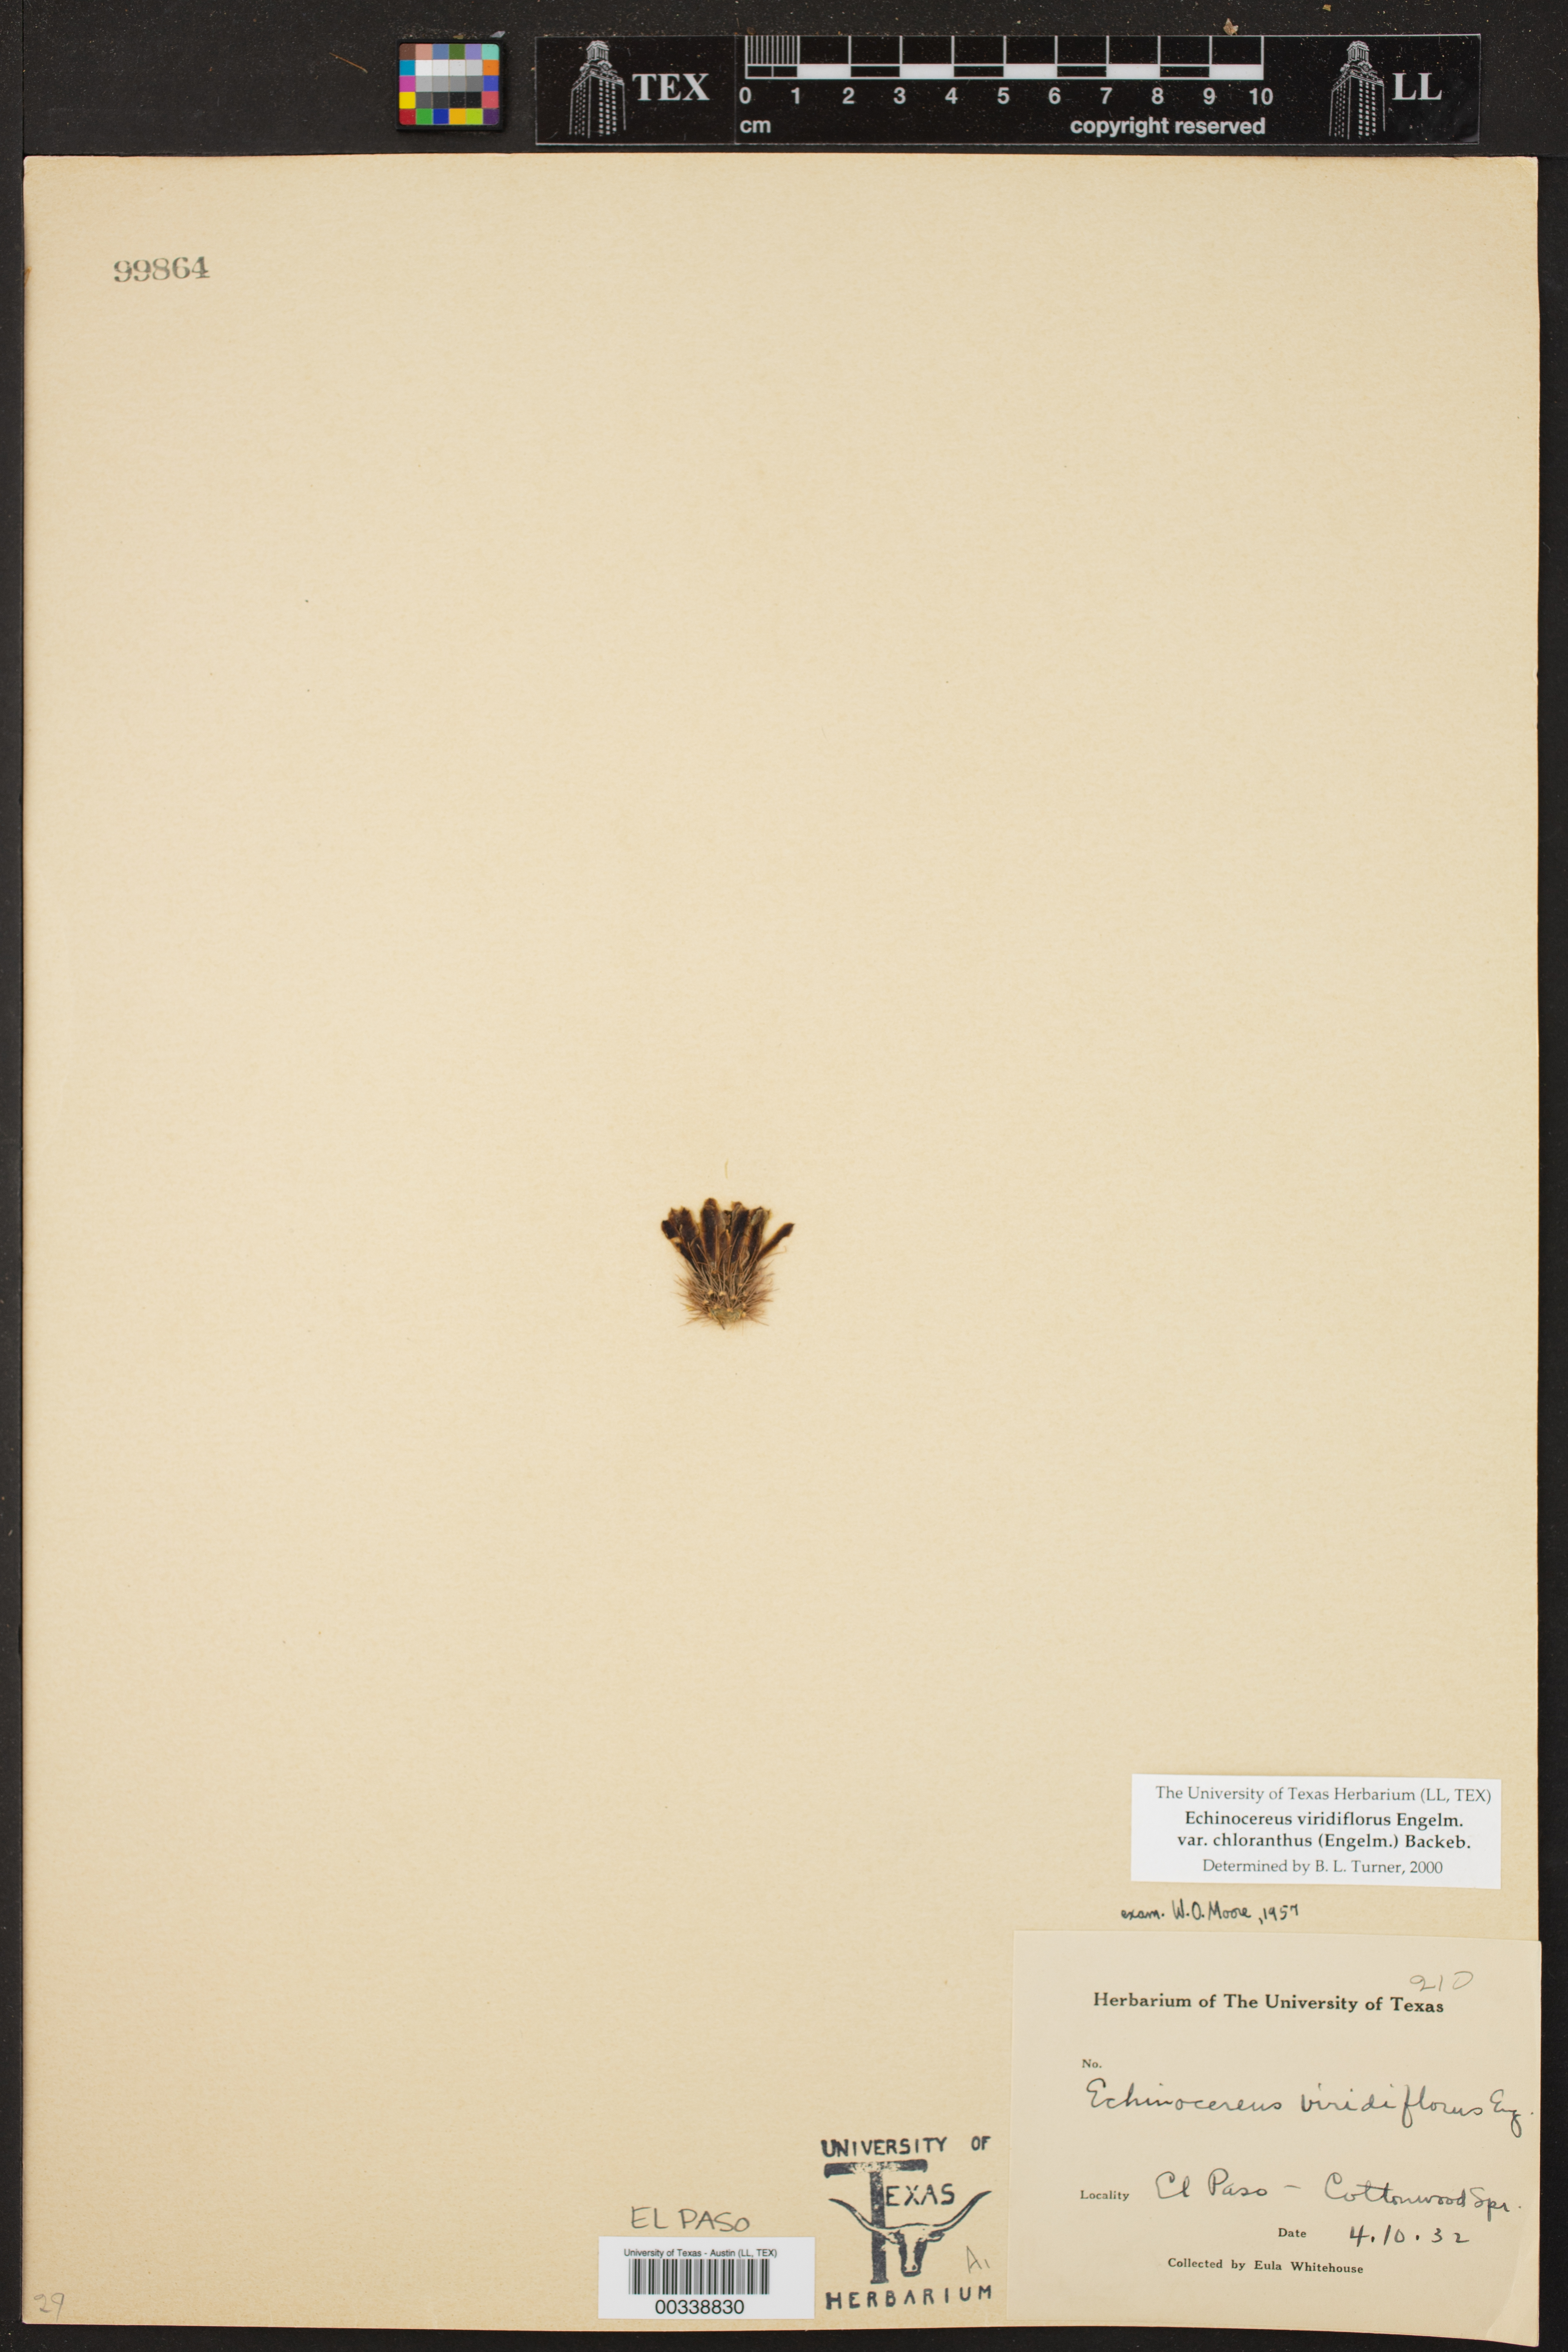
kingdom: Plantae
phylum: Tracheophyta
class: Magnoliopsida
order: Caryophyllales
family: Cactaceae
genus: Echinocereus
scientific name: Echinocereus viridiflorus
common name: Nylon hedgehog cactus
